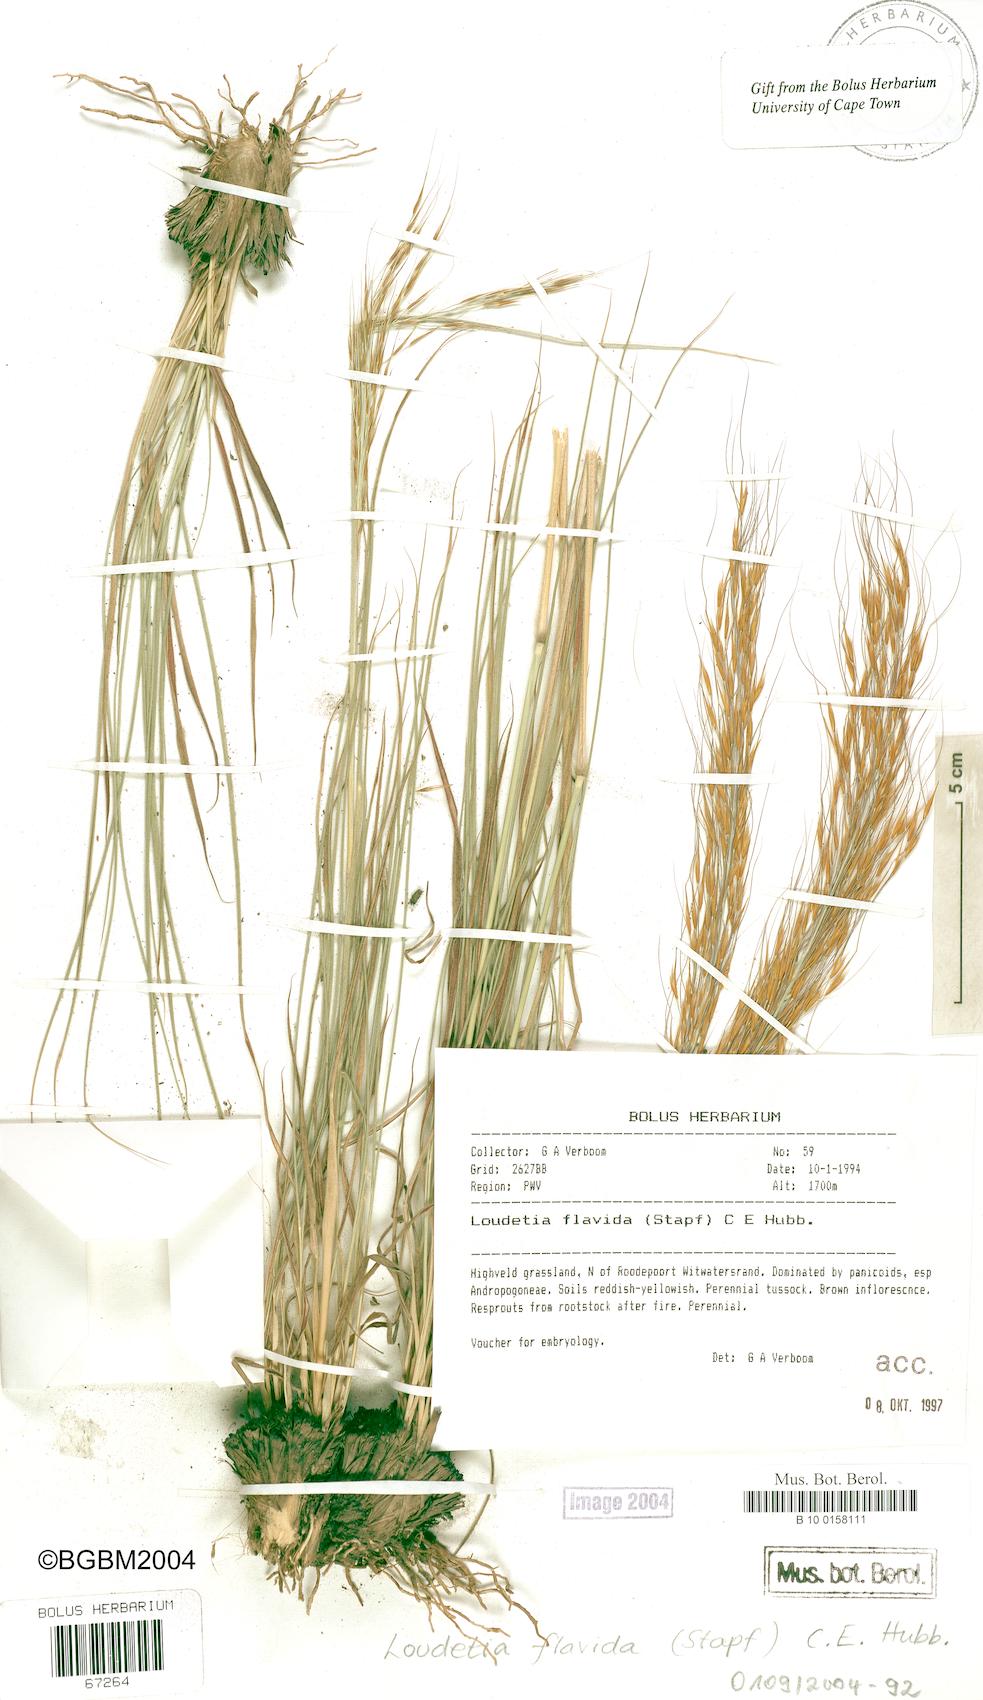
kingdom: Plantae
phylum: Tracheophyta
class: Liliopsida
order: Poales
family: Poaceae
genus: Loudetia
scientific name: Loudetia flavida
